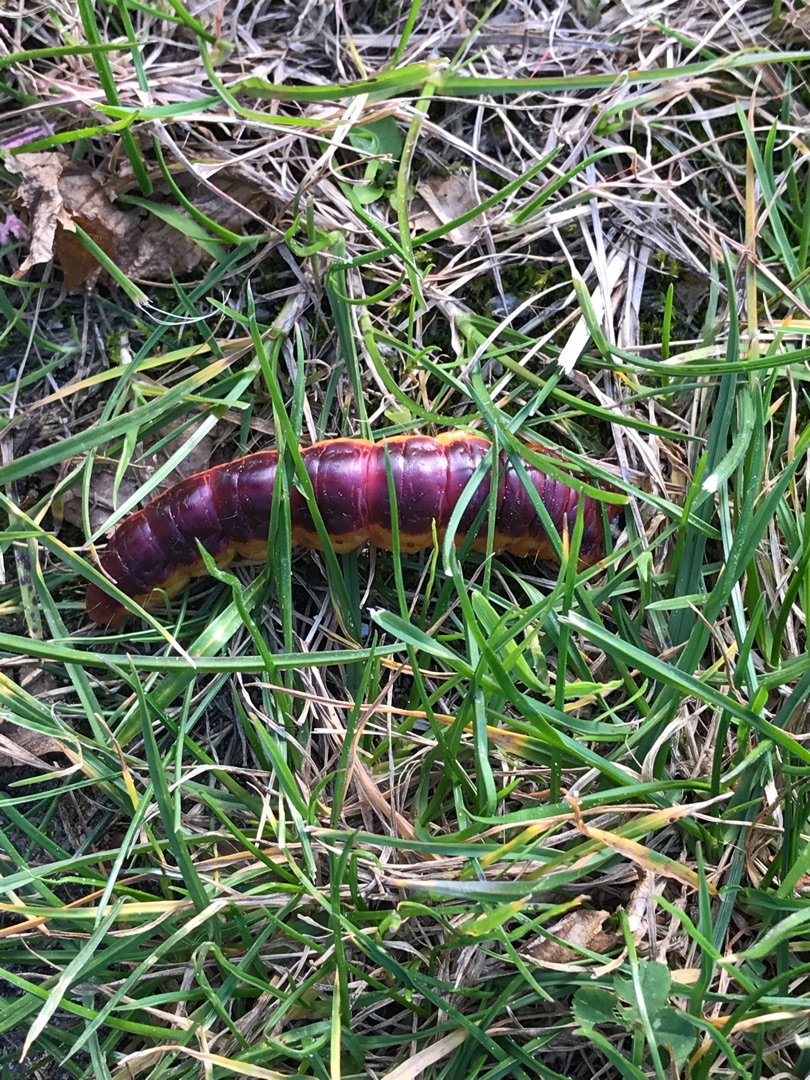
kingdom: Animalia
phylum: Arthropoda
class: Insecta
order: Lepidoptera
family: Cossidae
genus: Cossus
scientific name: Cossus cossus
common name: Pileborer
